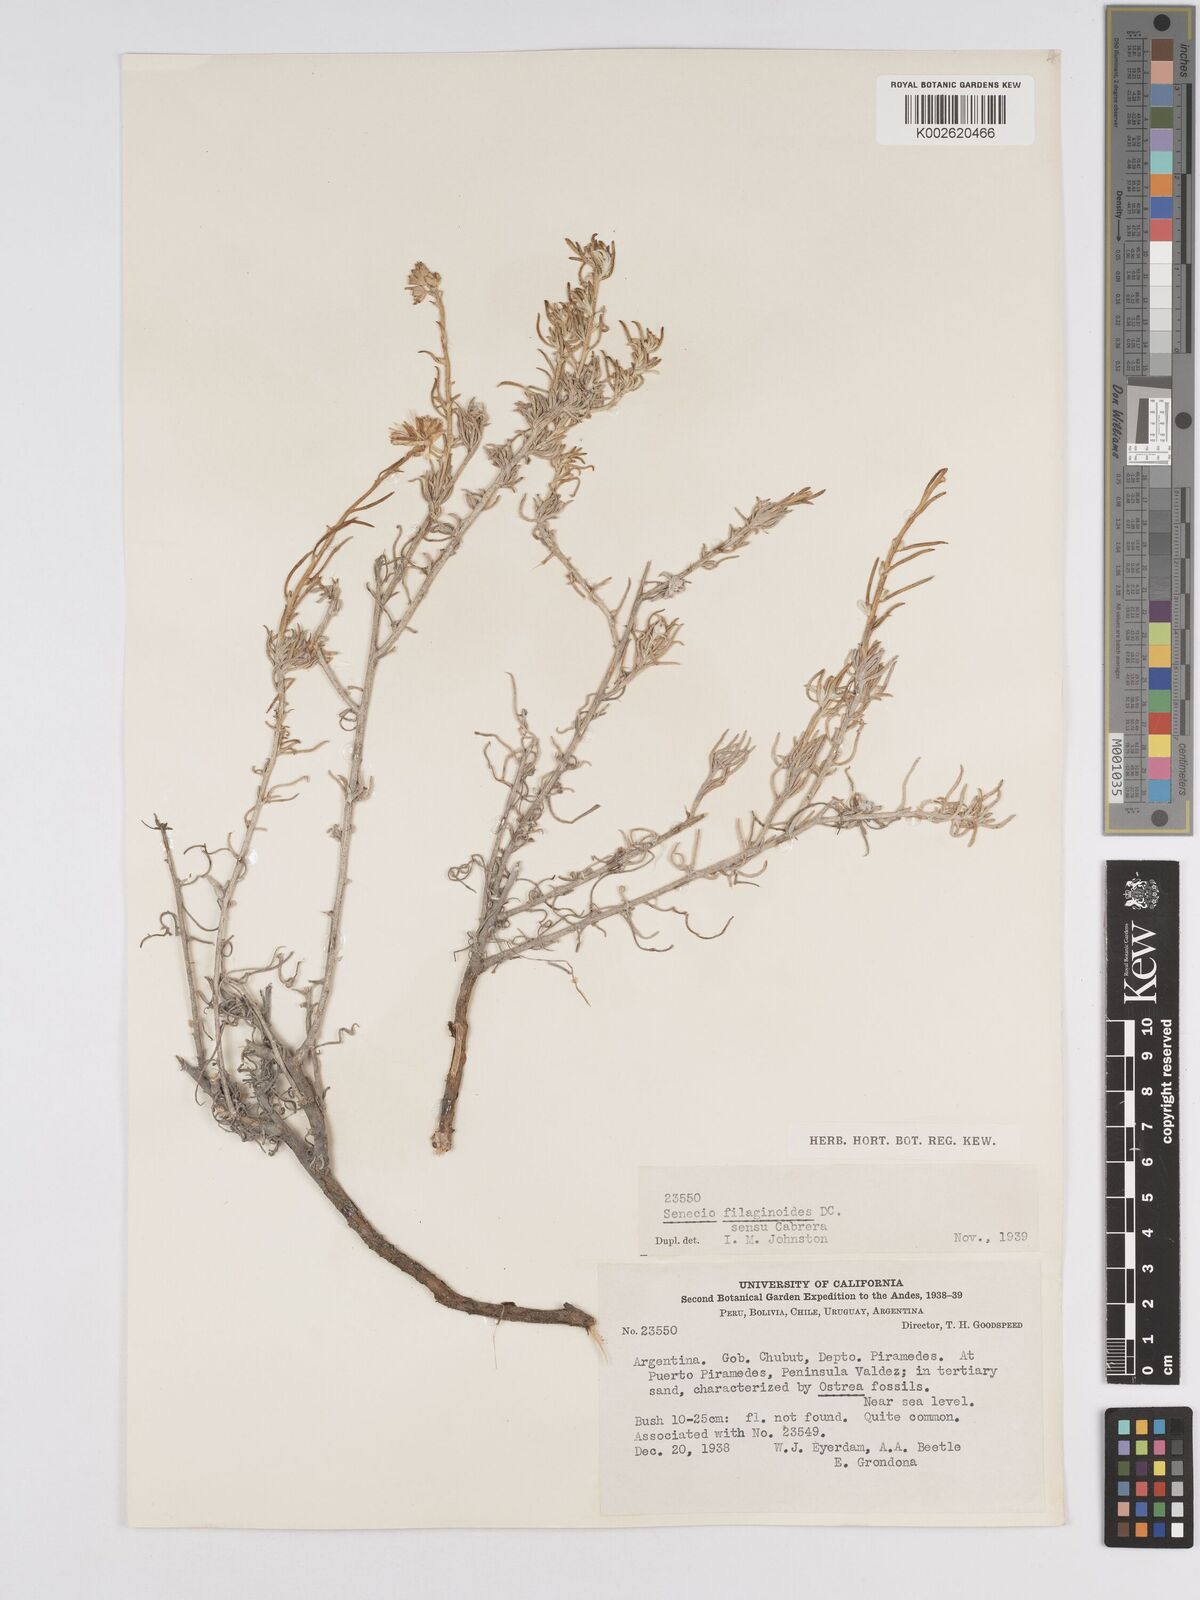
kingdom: Plantae
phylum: Tracheophyta
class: Magnoliopsida
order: Asterales
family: Asteraceae
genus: Senecio
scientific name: Senecio filaginoides
